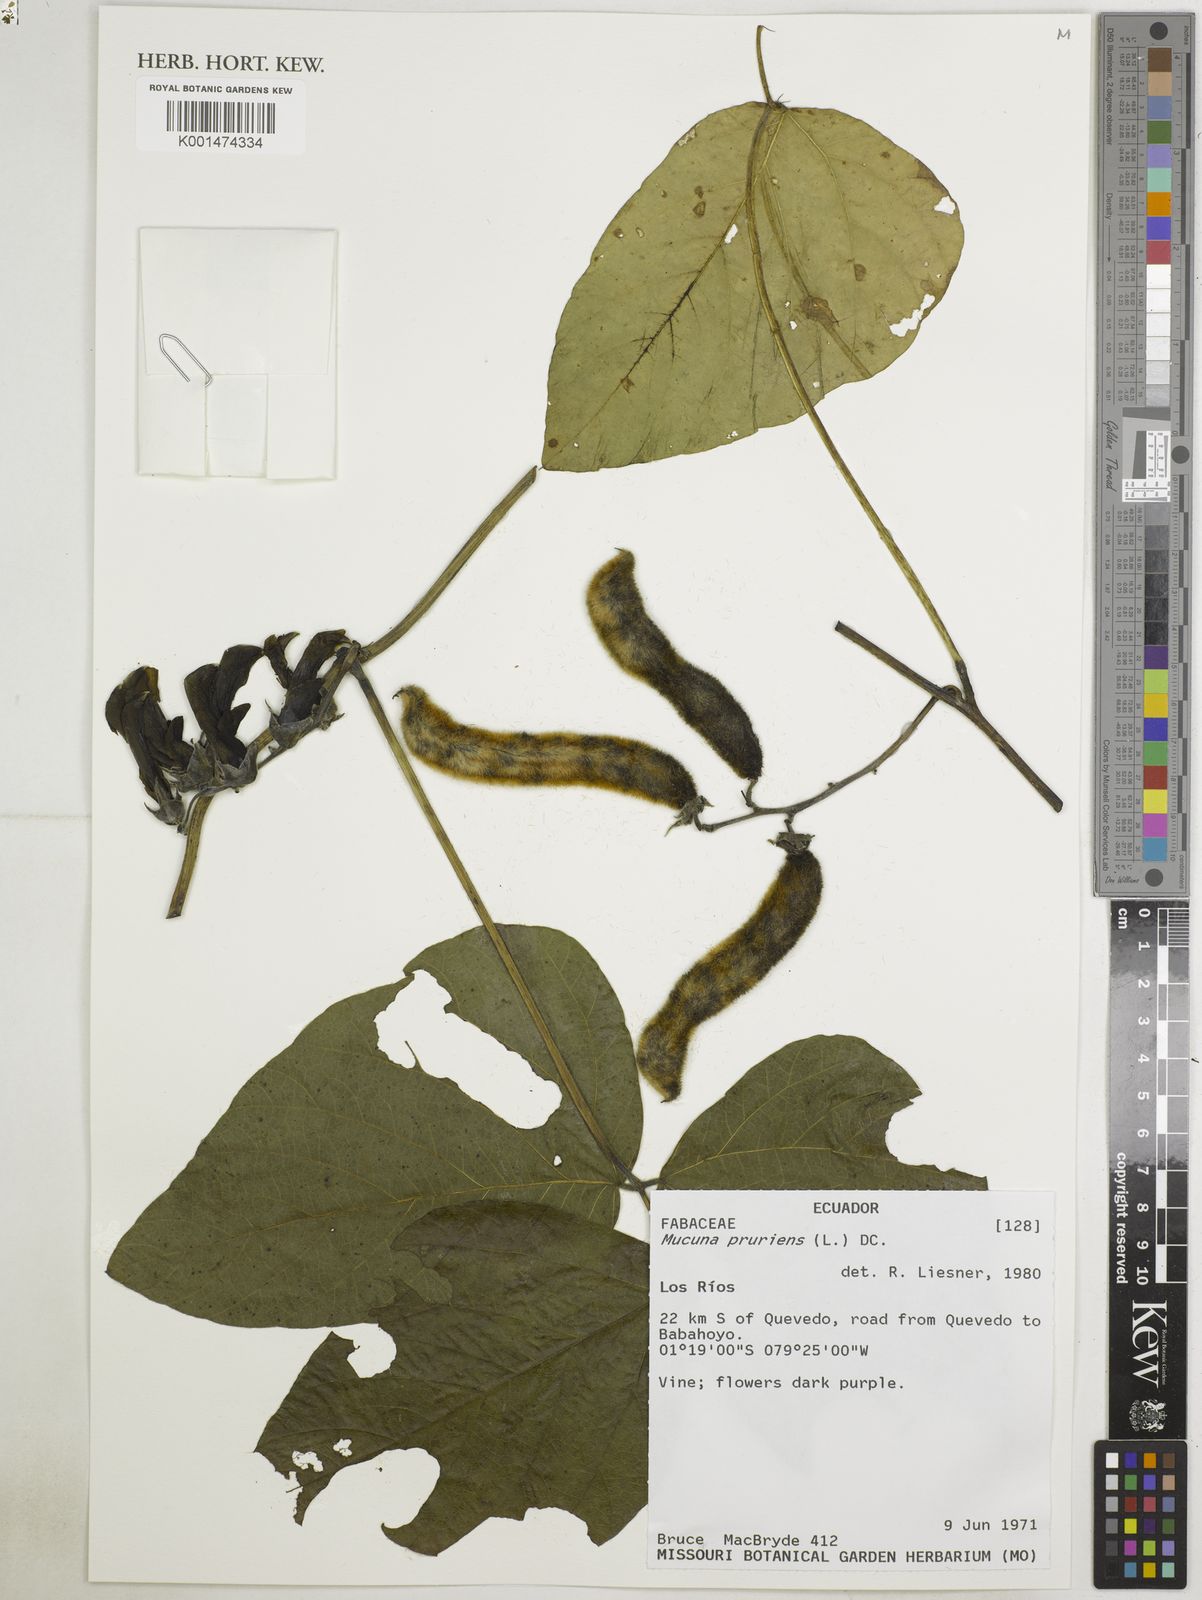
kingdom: Plantae
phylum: Tracheophyta
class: Magnoliopsida
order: Fabales
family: Fabaceae
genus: Mucuna
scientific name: Mucuna pruriens
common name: Cow-itch
